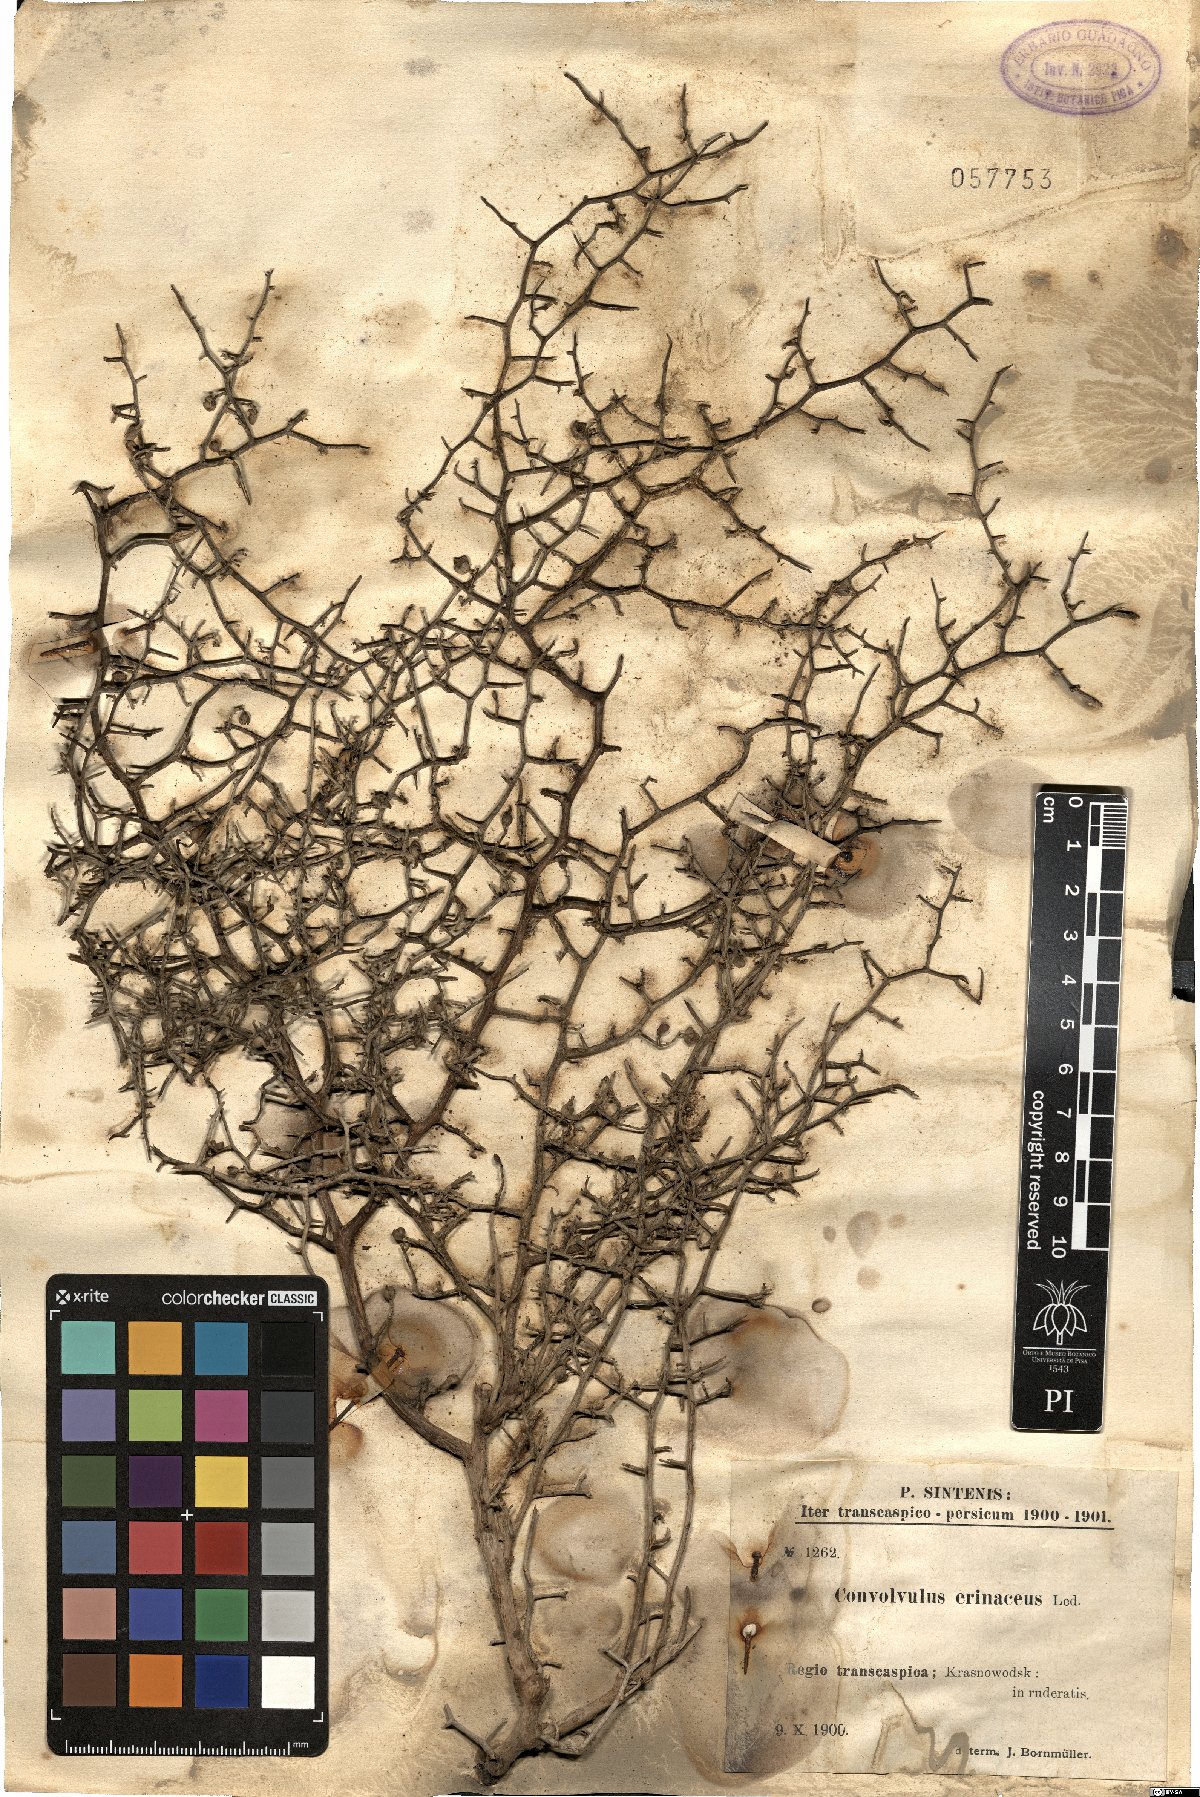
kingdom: Plantae
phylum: Tracheophyta
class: Magnoliopsida
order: Solanales
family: Convolvulaceae
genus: Convolvulus
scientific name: Convolvulus erinaceus
